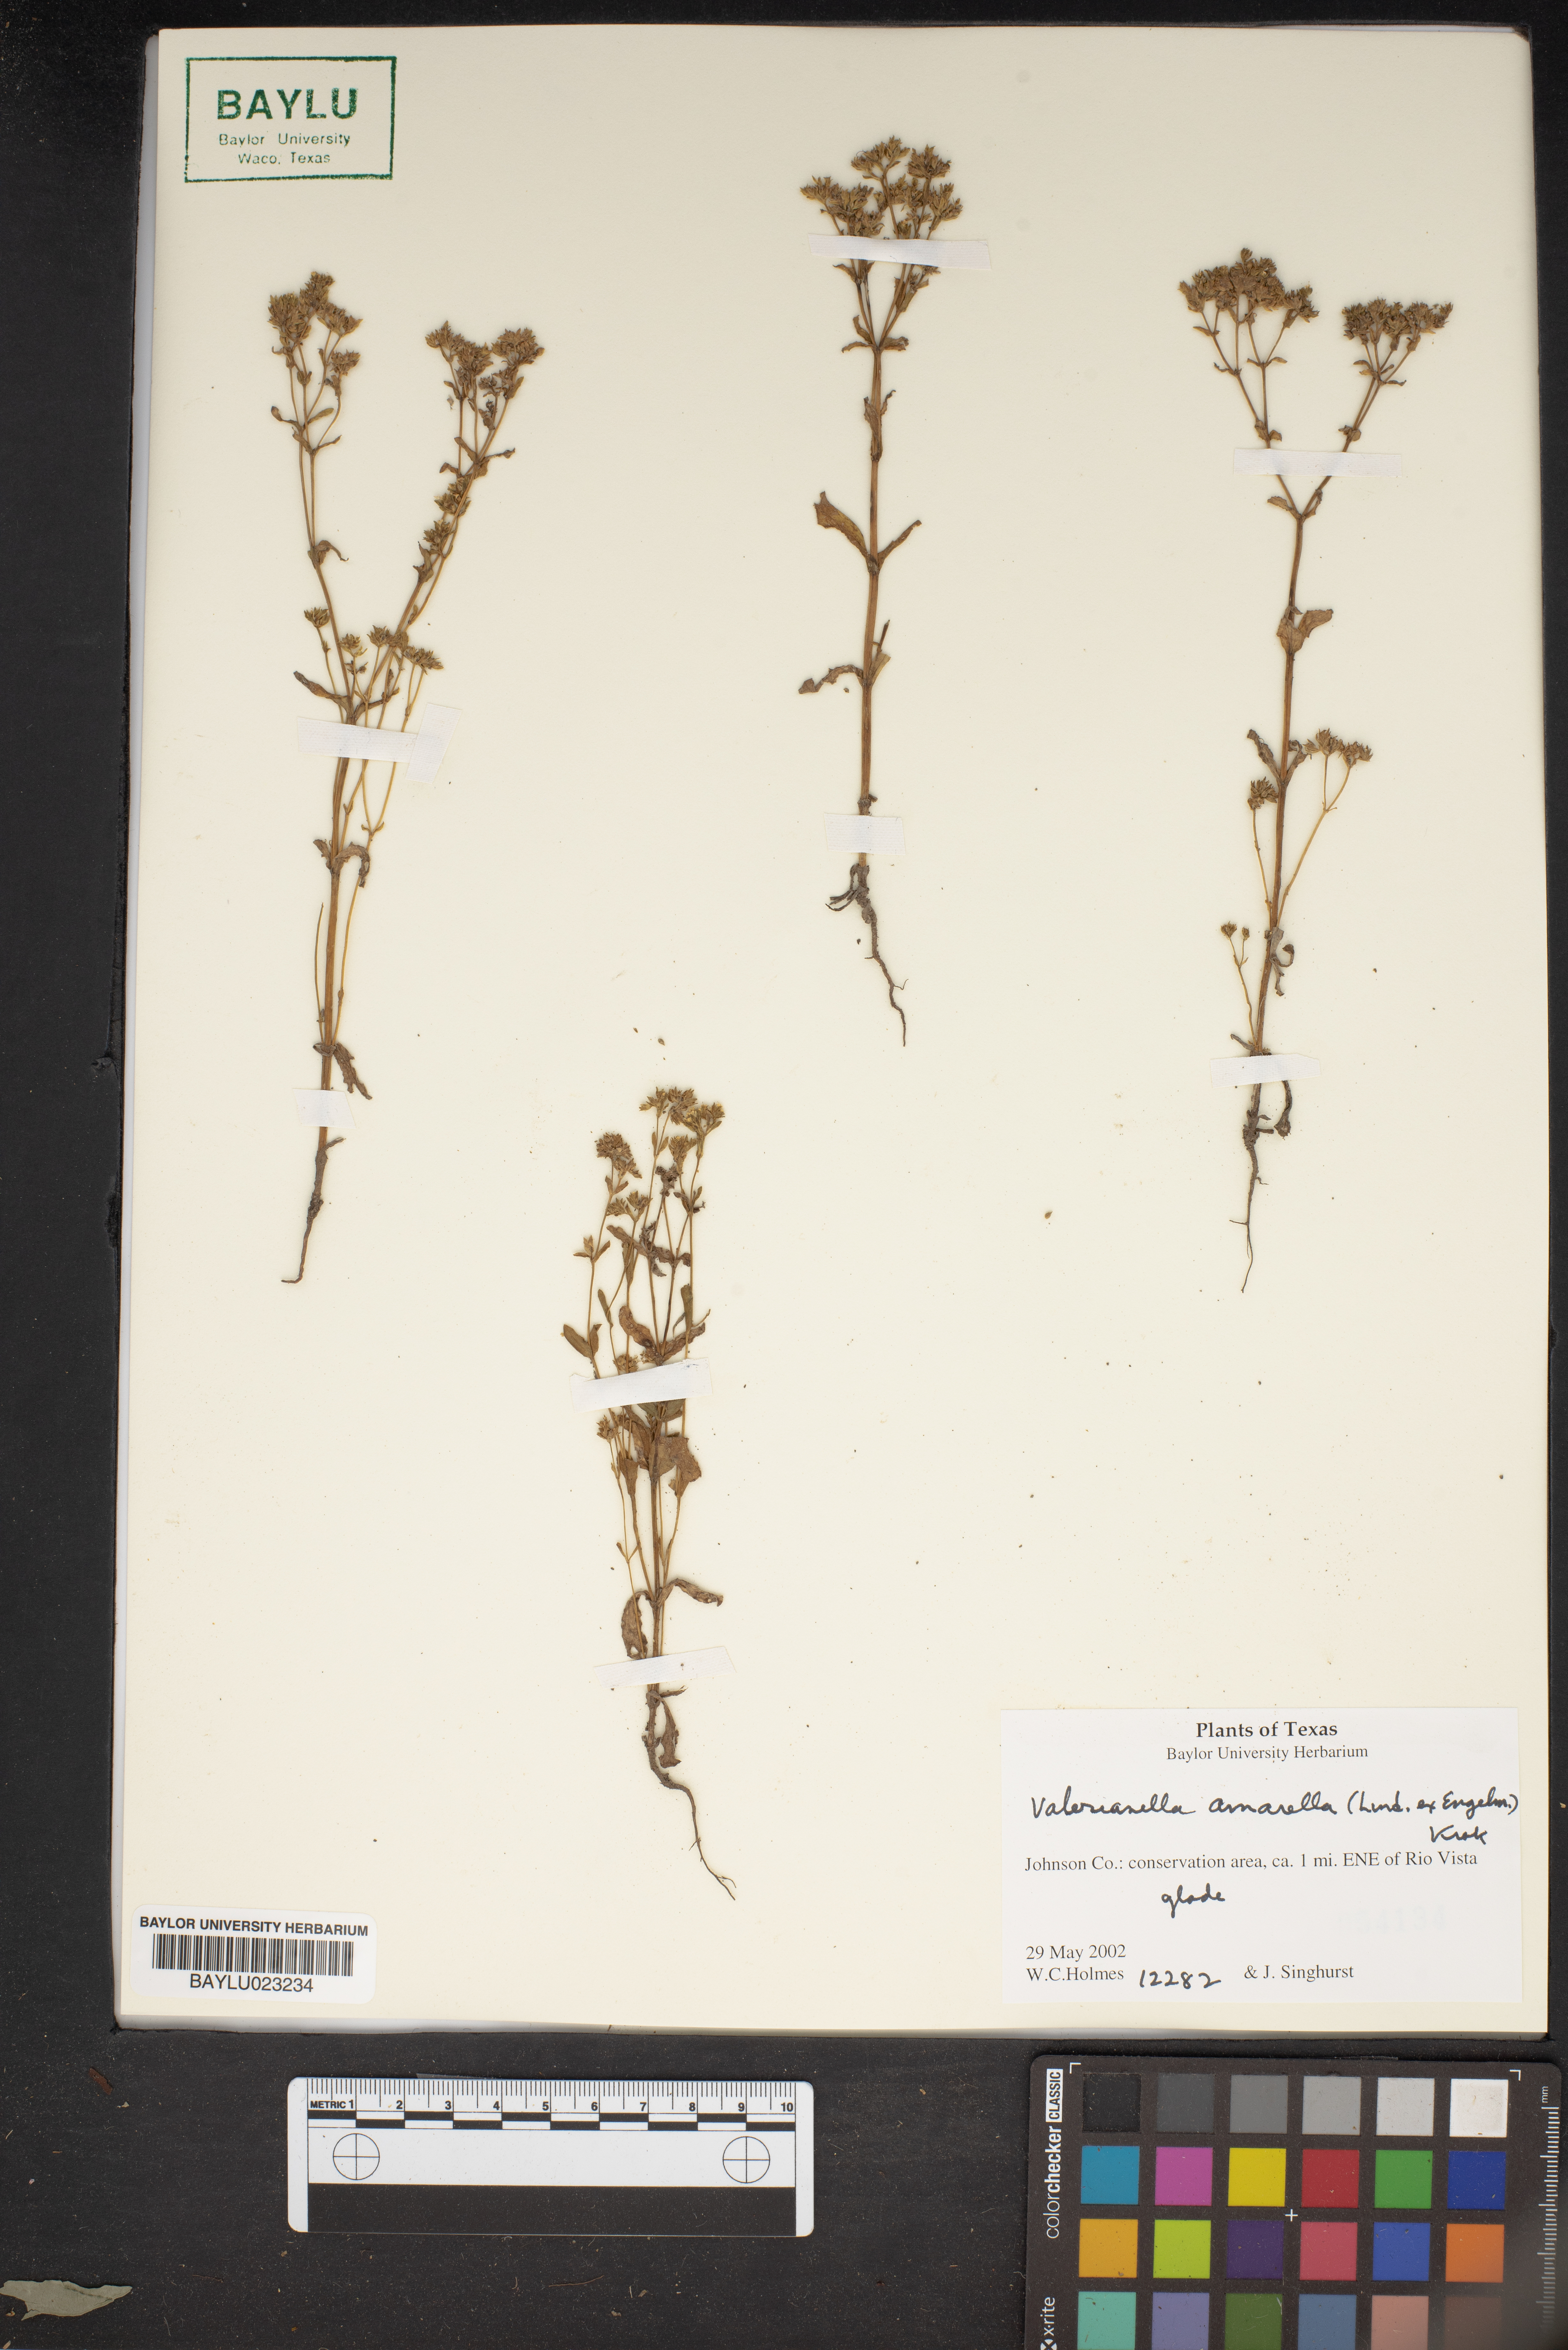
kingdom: Plantae
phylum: Tracheophyta
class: Magnoliopsida
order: Dipsacales
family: Caprifoliaceae
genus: Valerianella
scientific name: Valerianella amarella
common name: Hariy cornsalad
